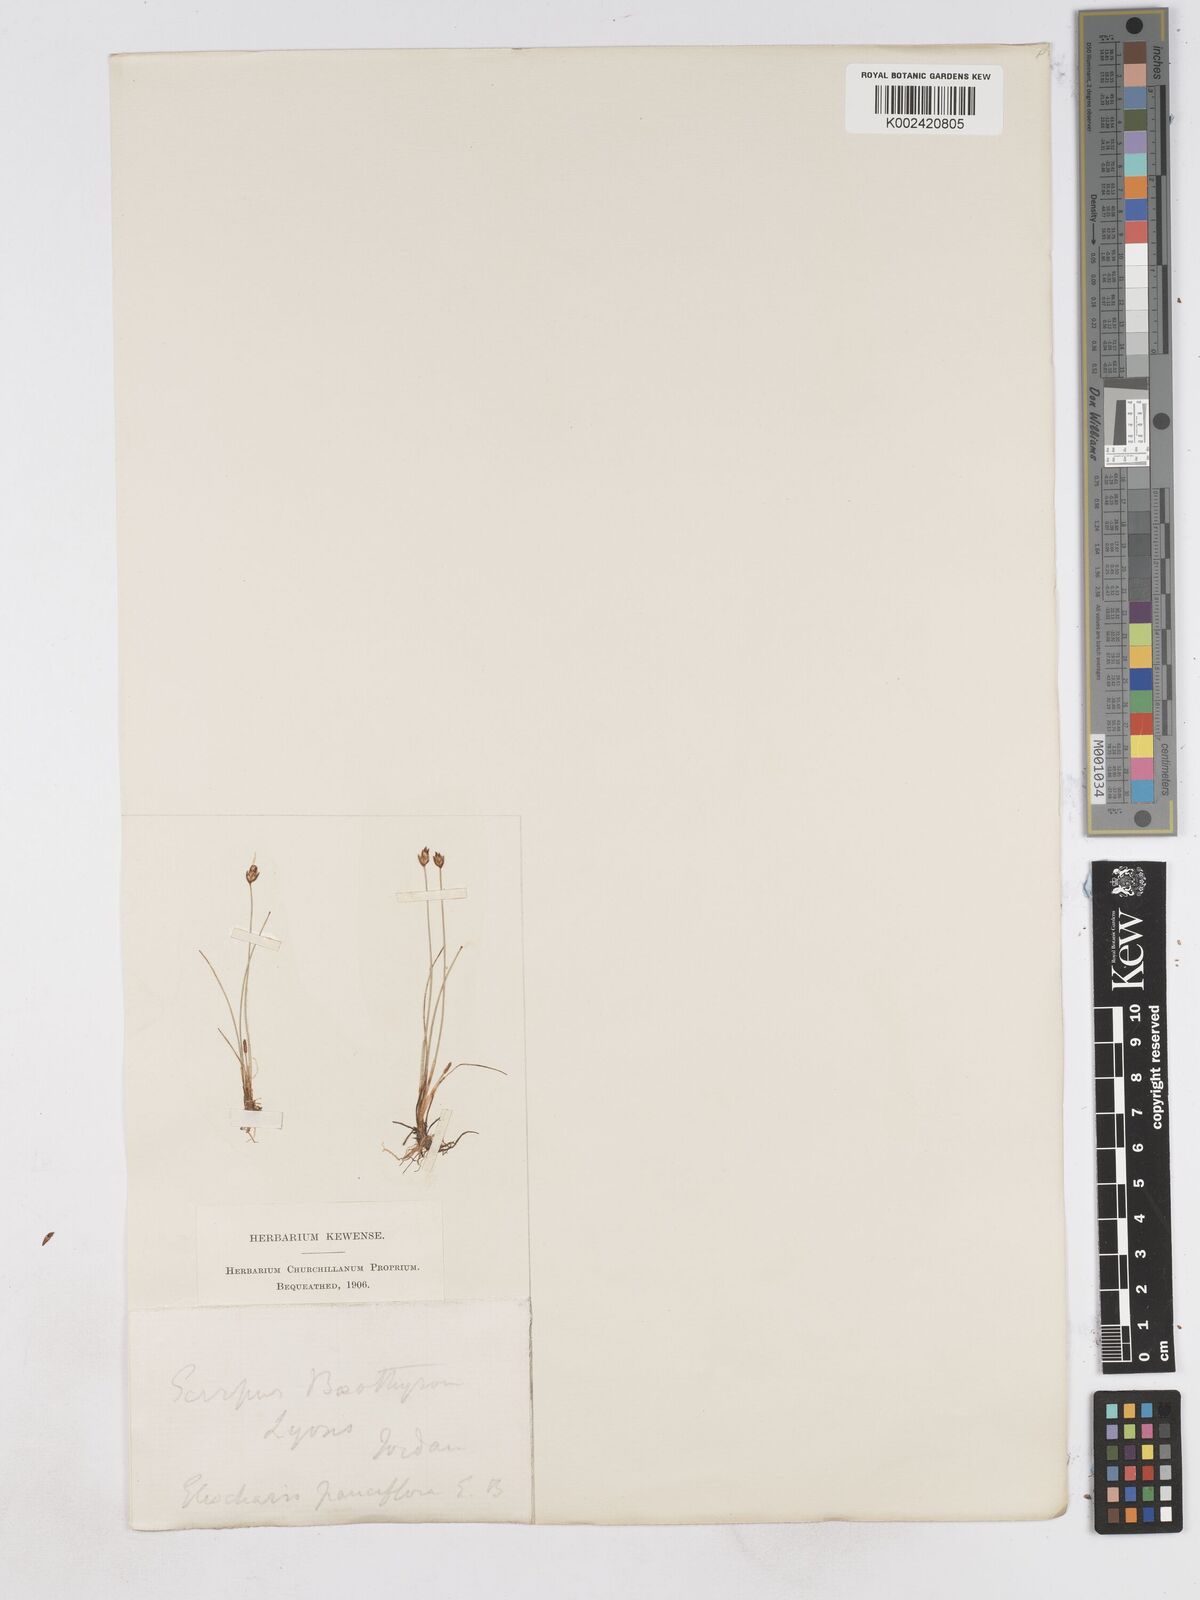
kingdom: Plantae
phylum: Tracheophyta
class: Liliopsida
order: Poales
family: Cyperaceae
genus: Eleocharis
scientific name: Eleocharis quinqueflora
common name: Few-flowered spike-rush
